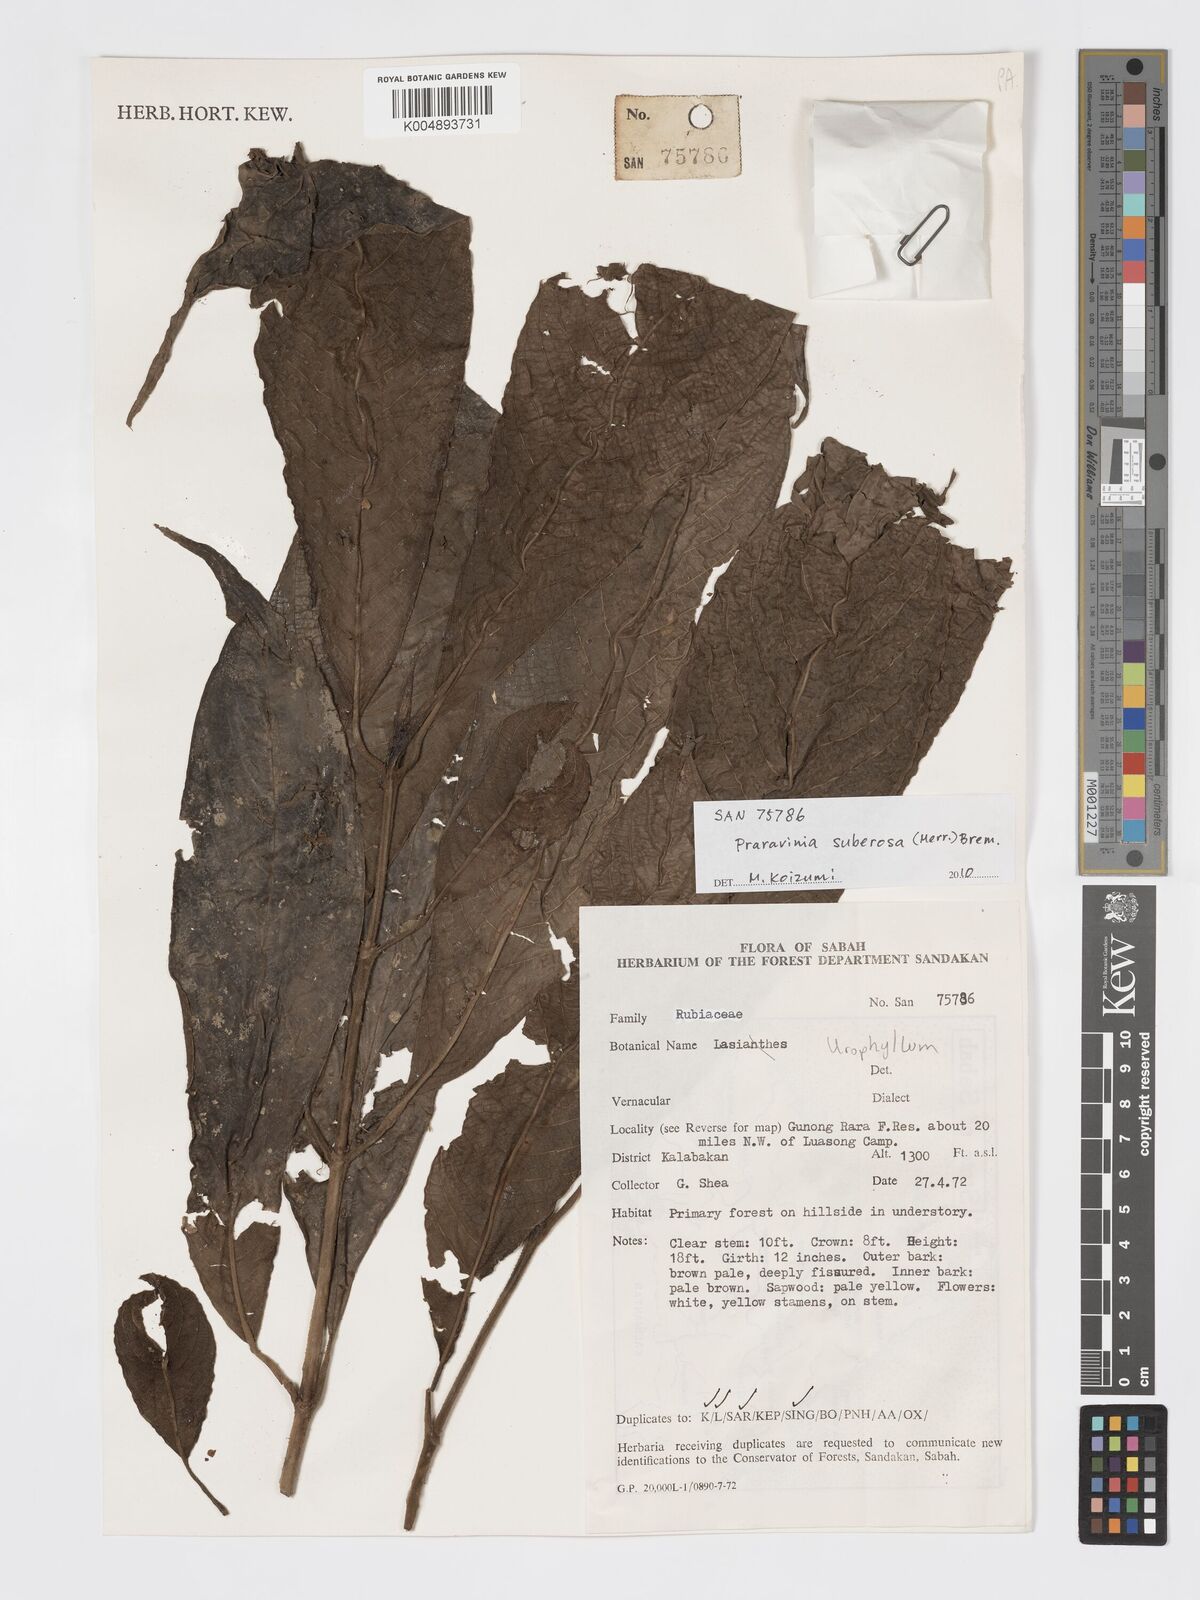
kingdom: Plantae
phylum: Tracheophyta
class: Magnoliopsida
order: Gentianales
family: Rubiaceae
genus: Praravinia
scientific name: Praravinia suberosa
